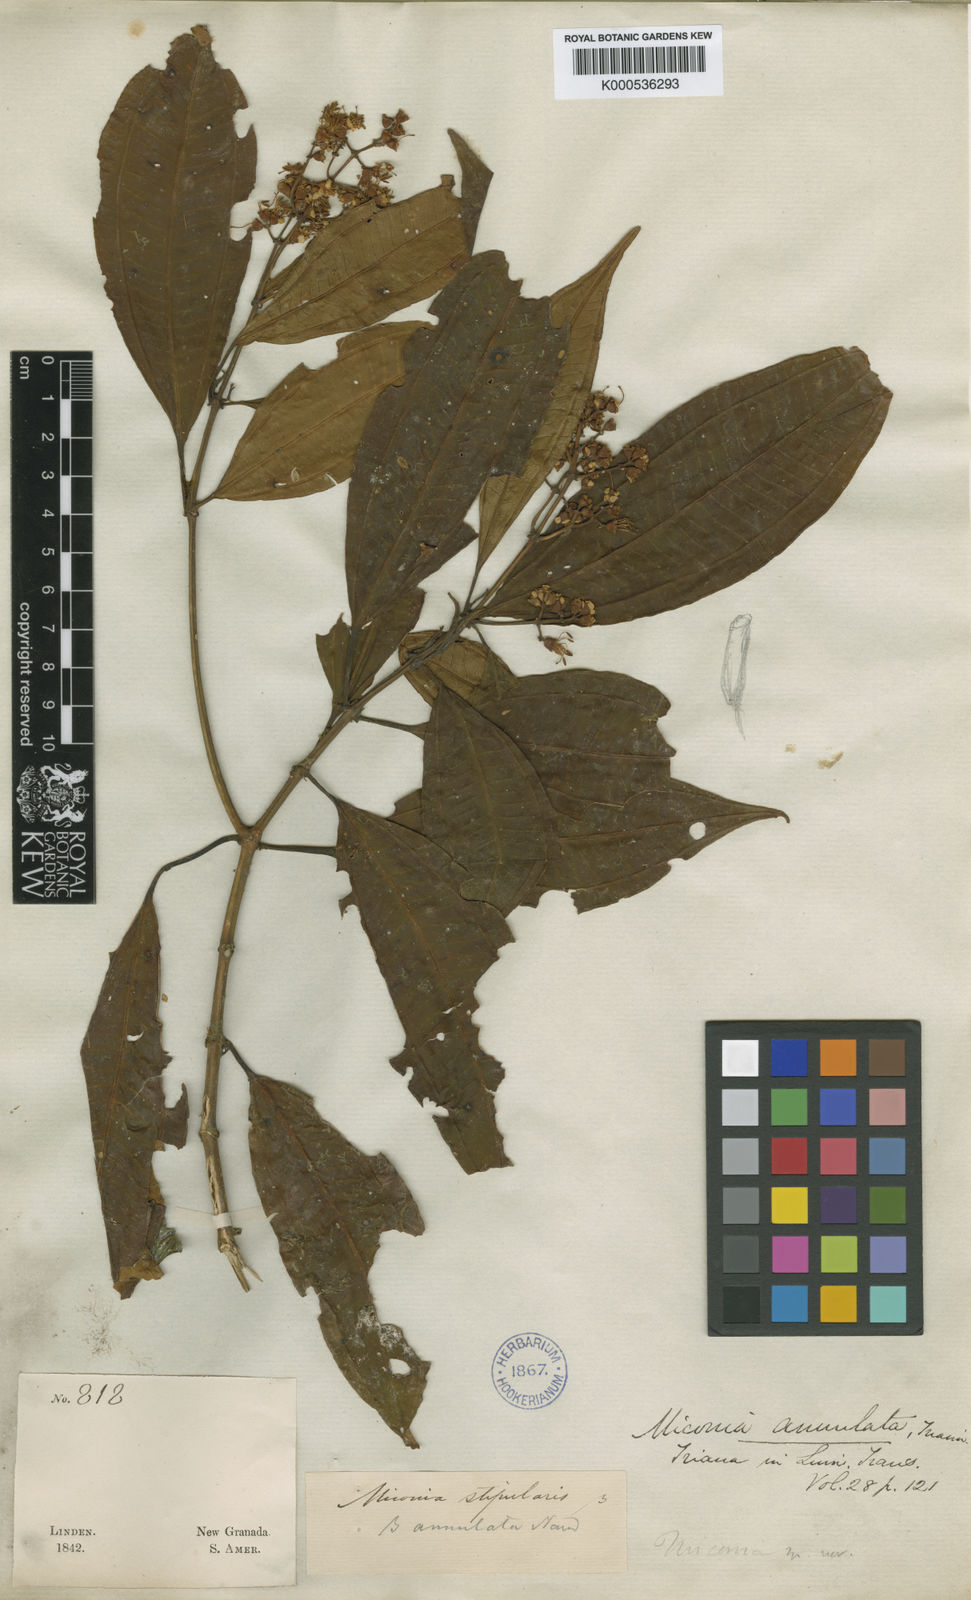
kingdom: Plantae
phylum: Tracheophyta
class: Magnoliopsida
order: Myrtales
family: Melastomataceae
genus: Miconia
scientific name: Miconia annulata
